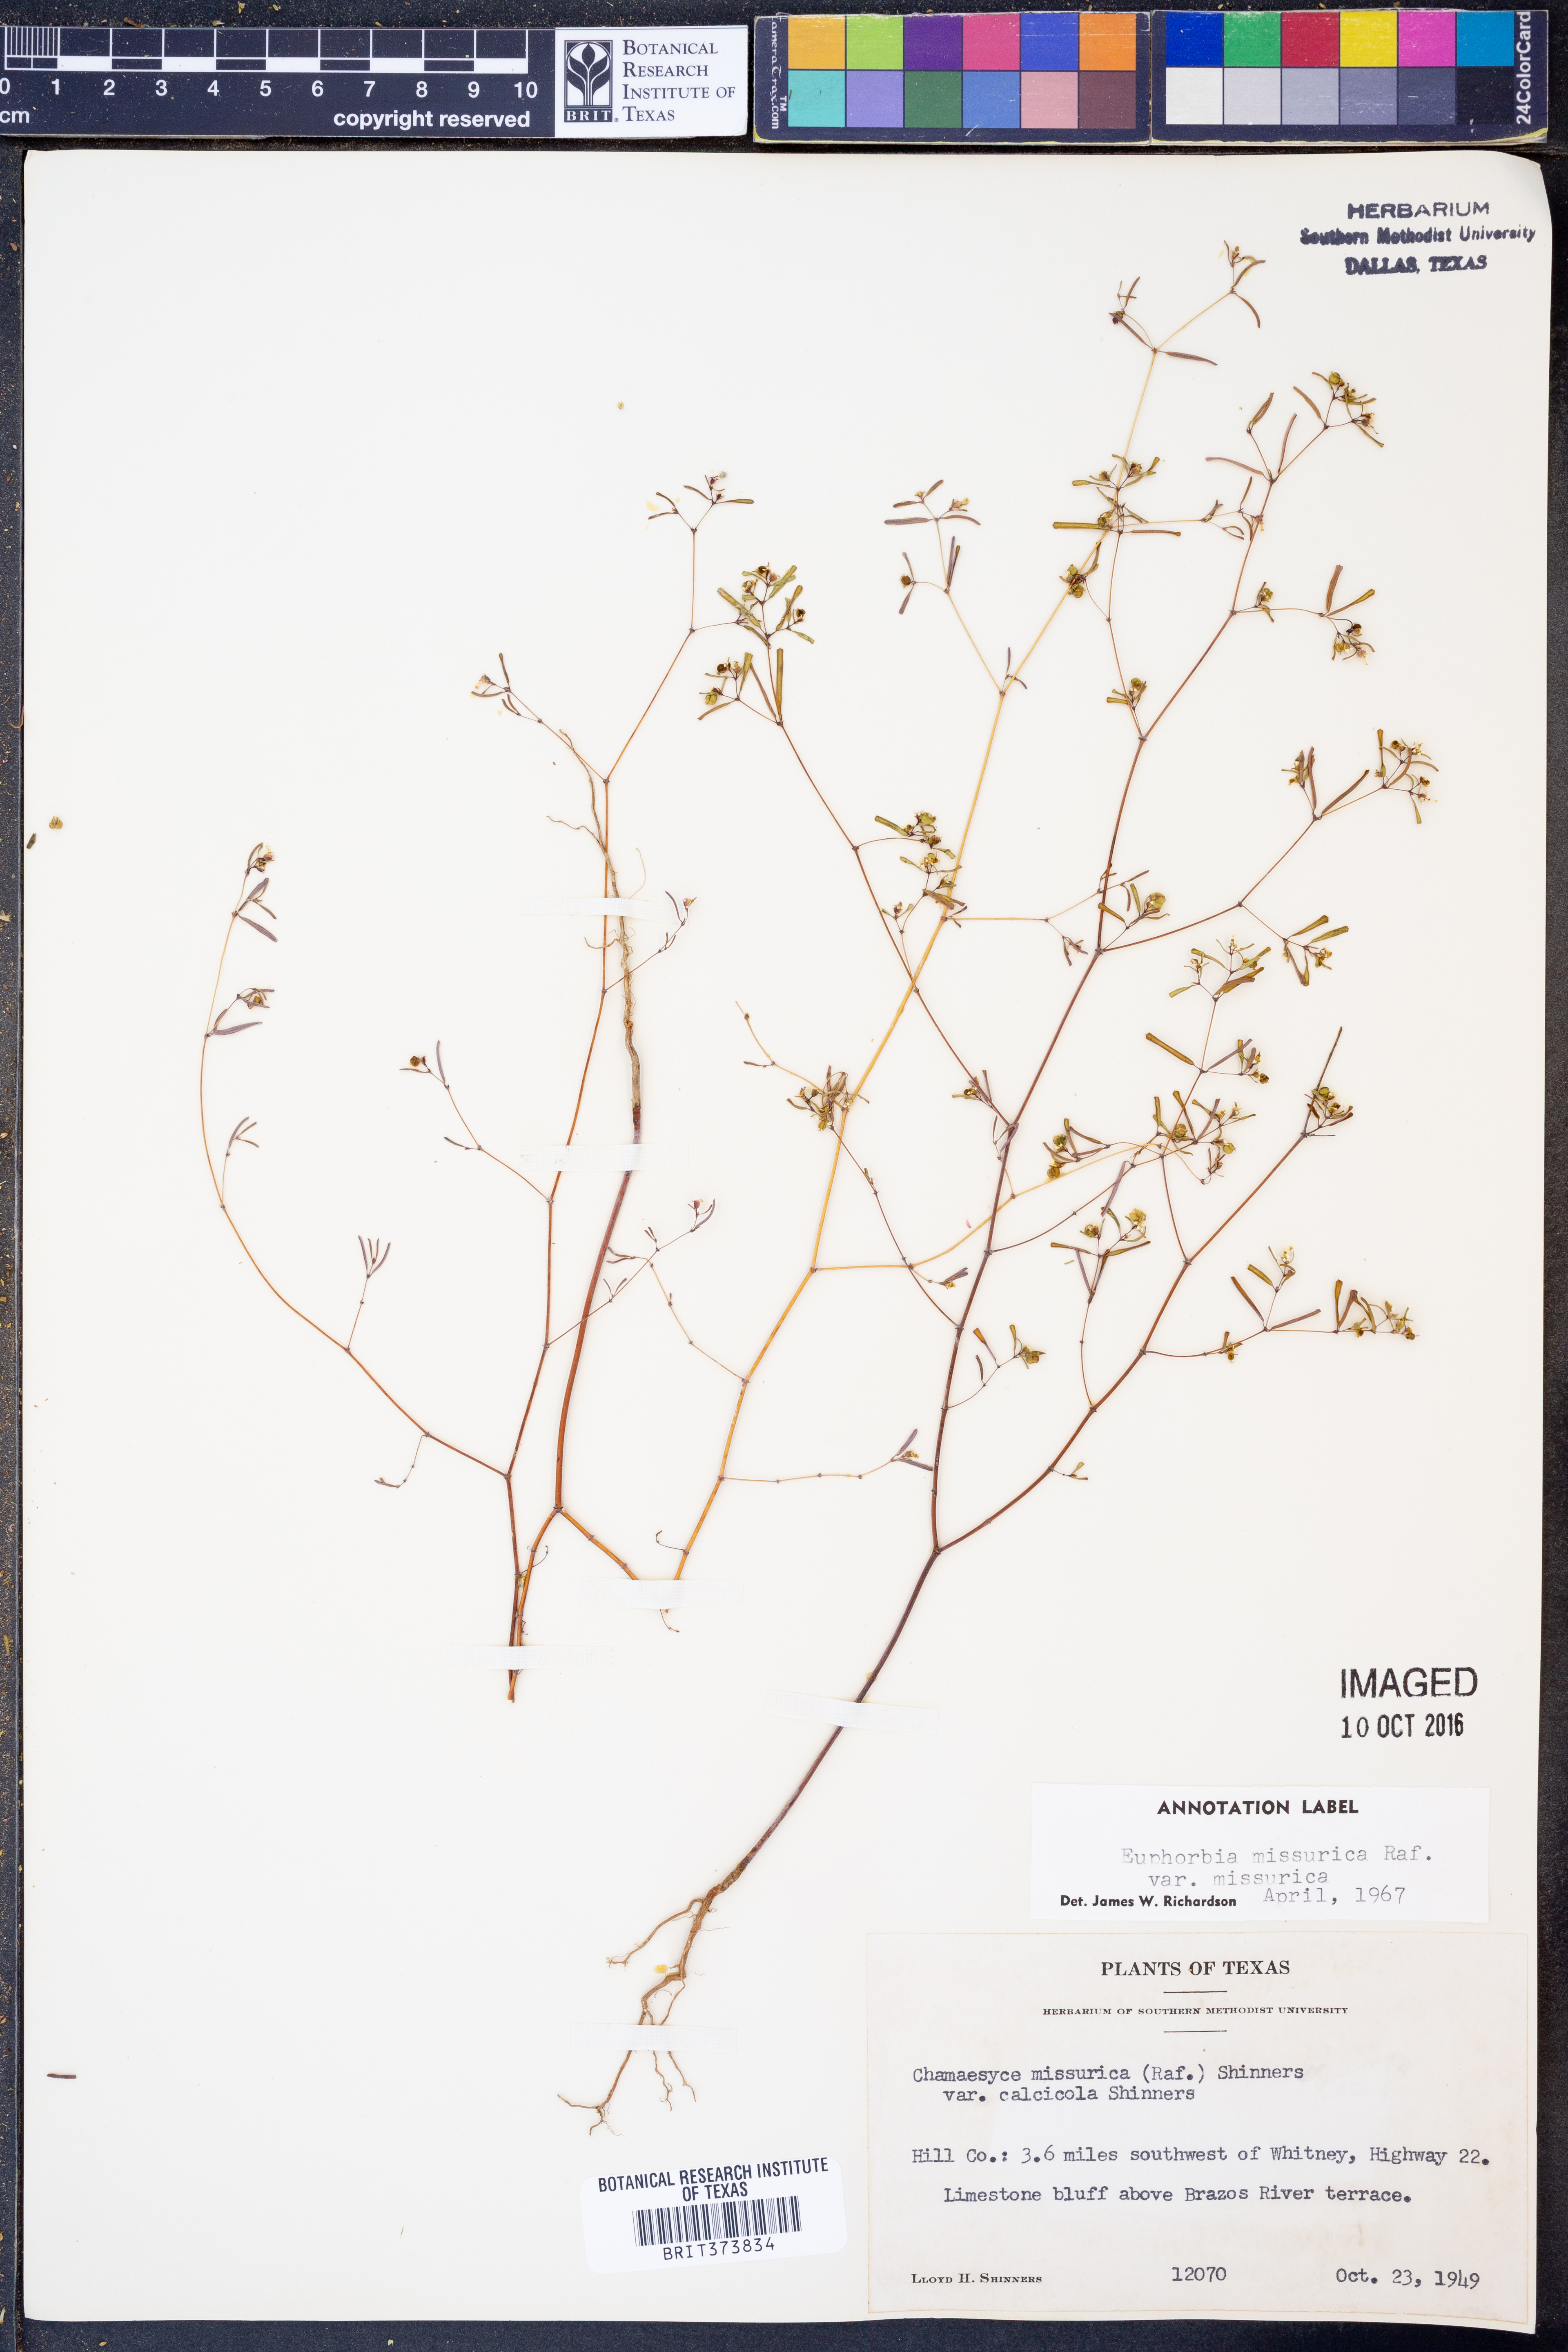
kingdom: Plantae
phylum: Tracheophyta
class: Magnoliopsida
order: Malpighiales
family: Euphorbiaceae
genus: Euphorbia
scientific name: Euphorbia missurica
